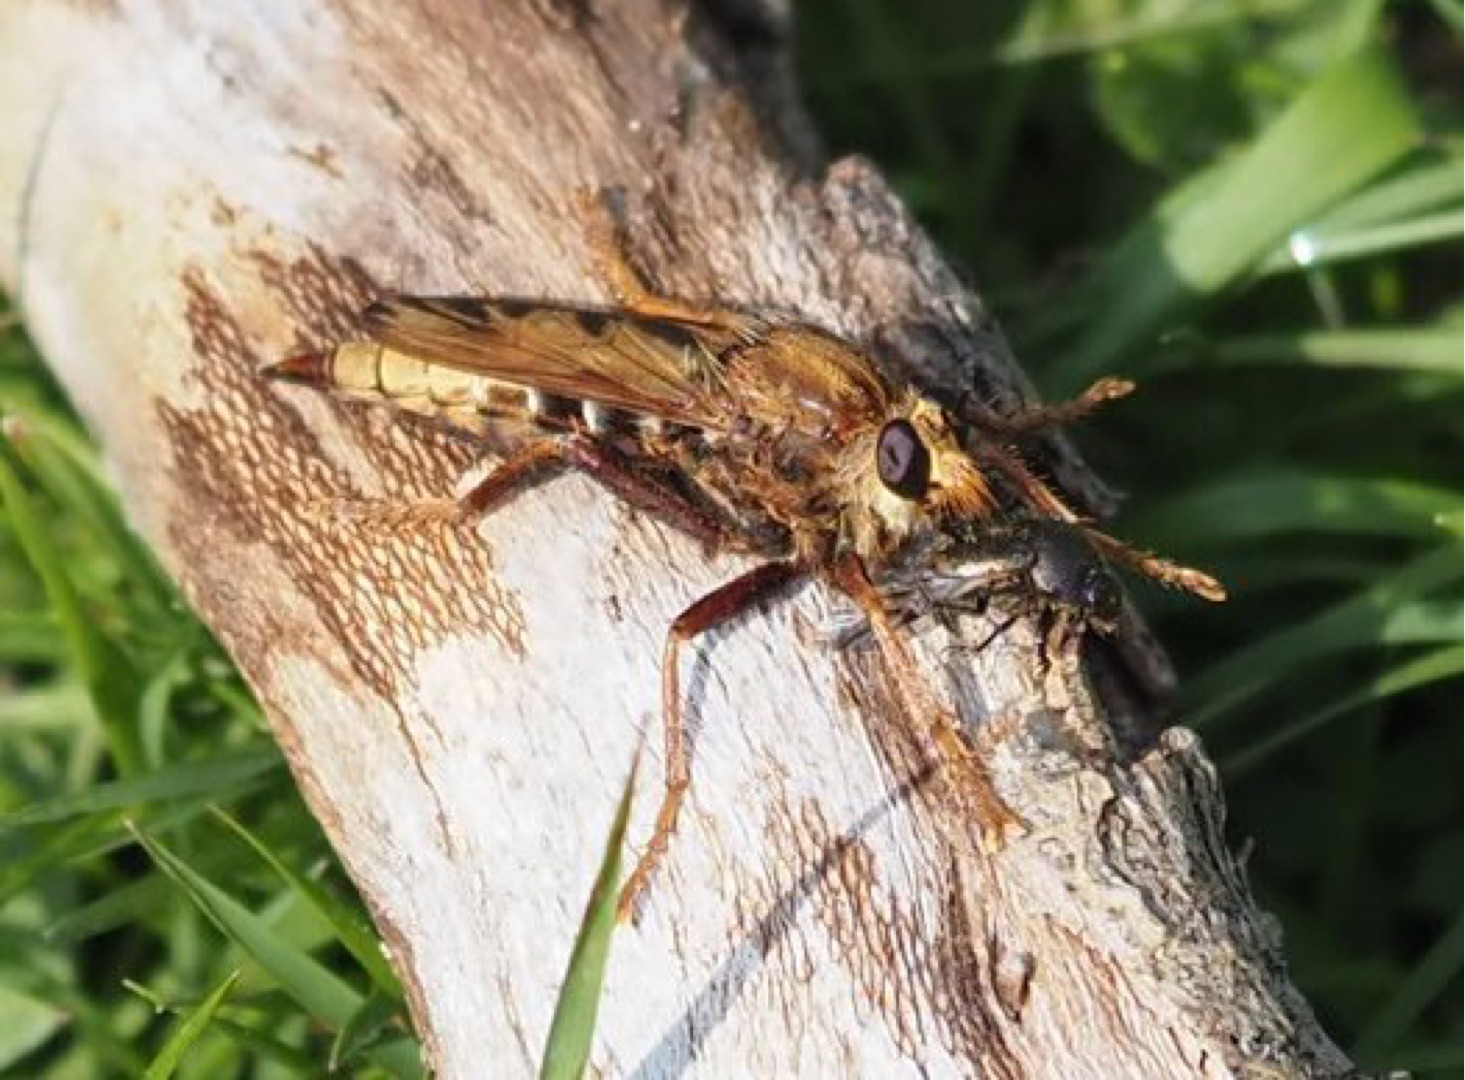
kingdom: Animalia
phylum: Arthropoda
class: Insecta
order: Diptera
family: Asilidae
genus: Asilus
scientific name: Asilus crabroniformis
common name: Stor gødningsrovflue
